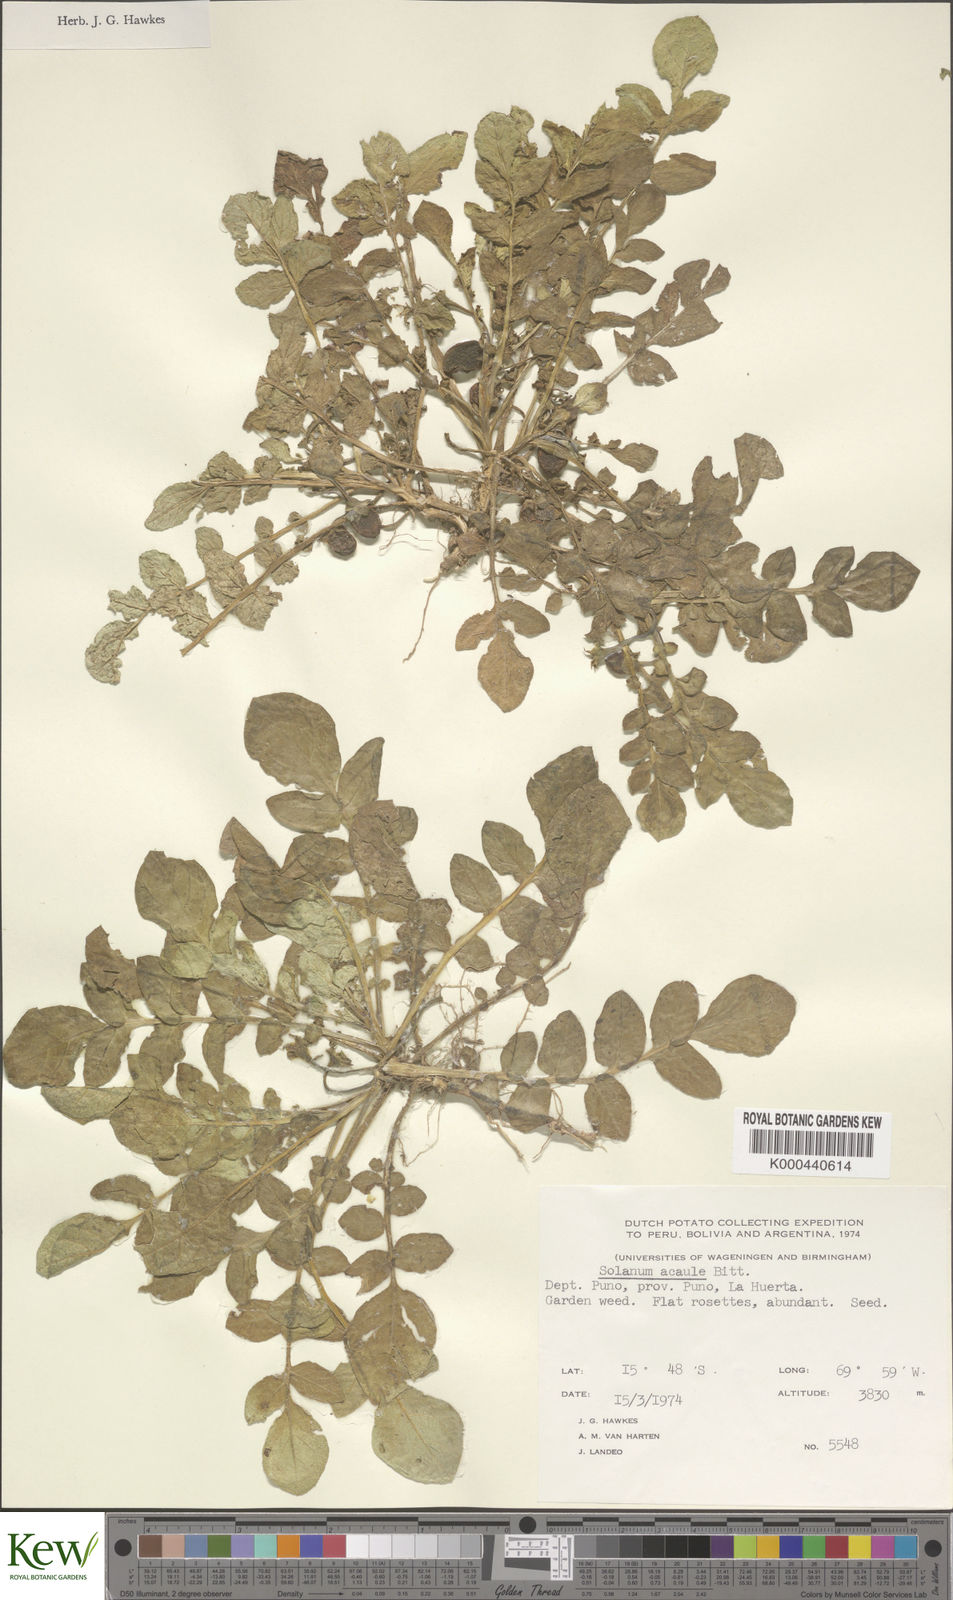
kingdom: Plantae
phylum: Tracheophyta
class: Magnoliopsida
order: Solanales
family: Solanaceae
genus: Solanum
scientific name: Solanum acaule
